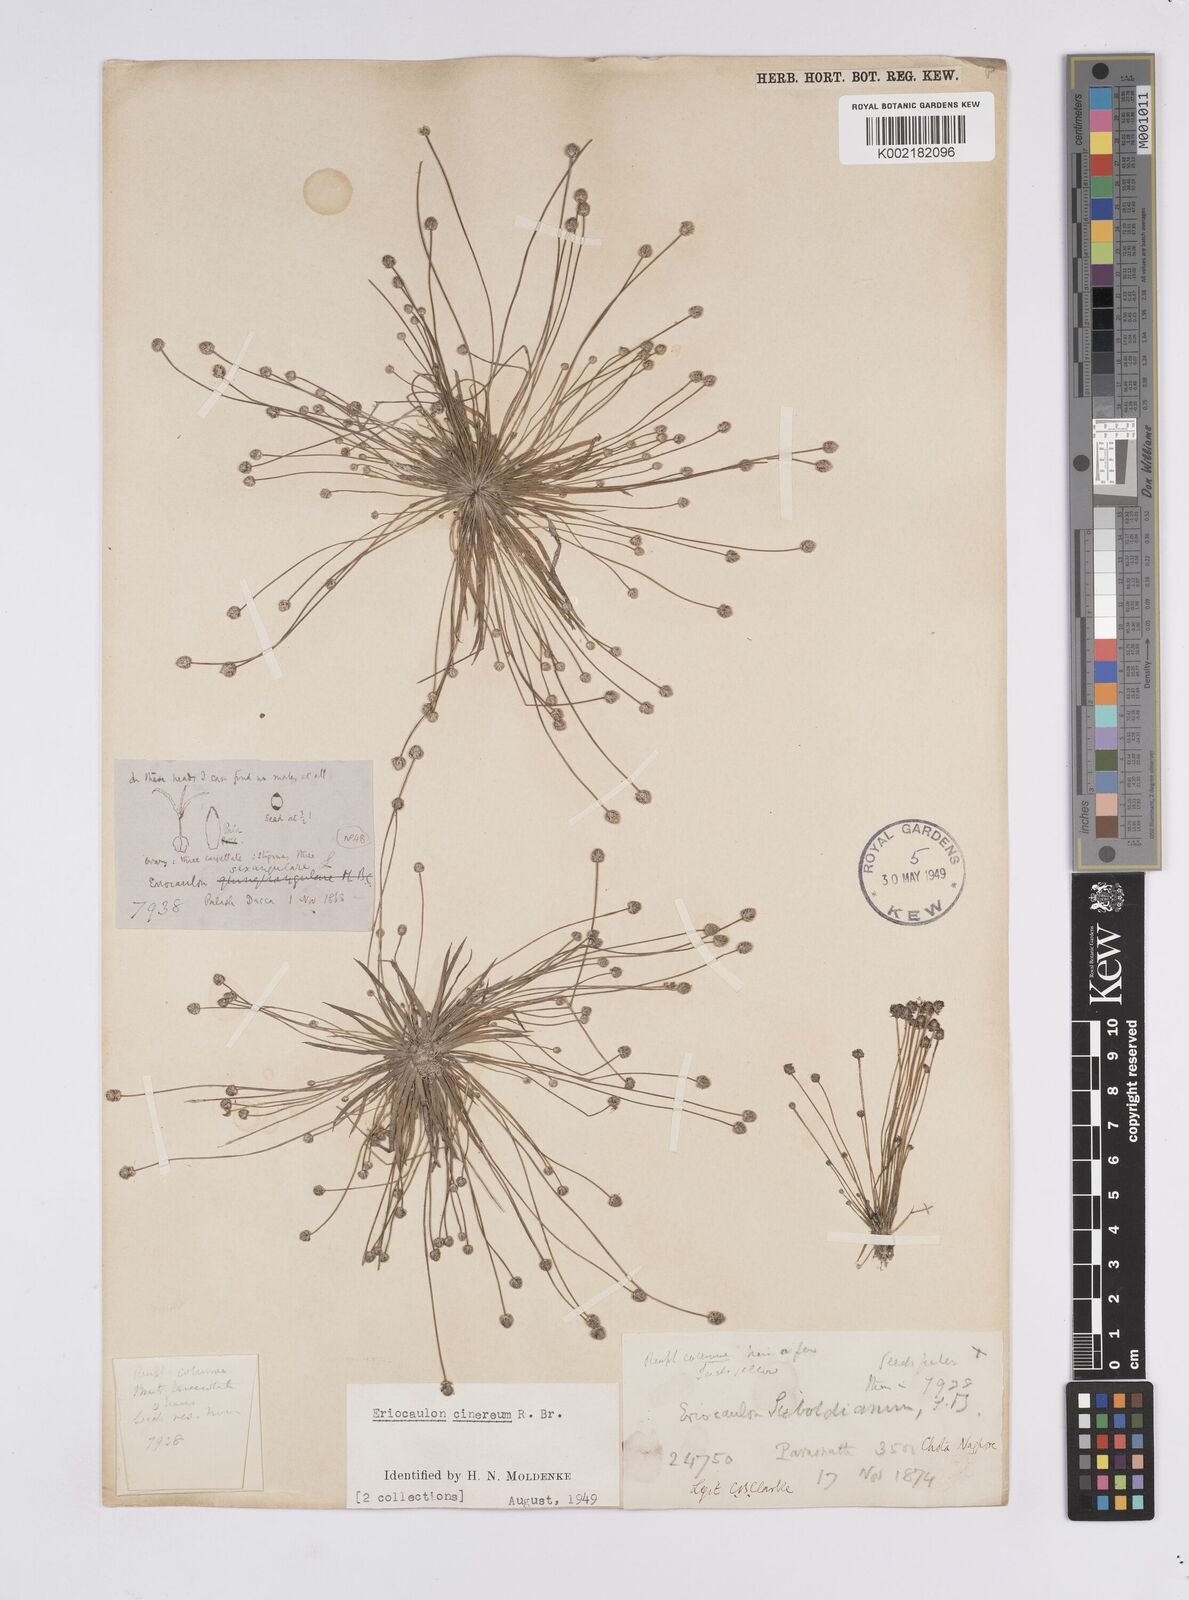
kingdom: Plantae
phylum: Tracheophyta
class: Liliopsida
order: Poales
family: Eriocaulaceae
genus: Eriocaulon
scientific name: Eriocaulon cinereum
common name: Ashy pipewort
